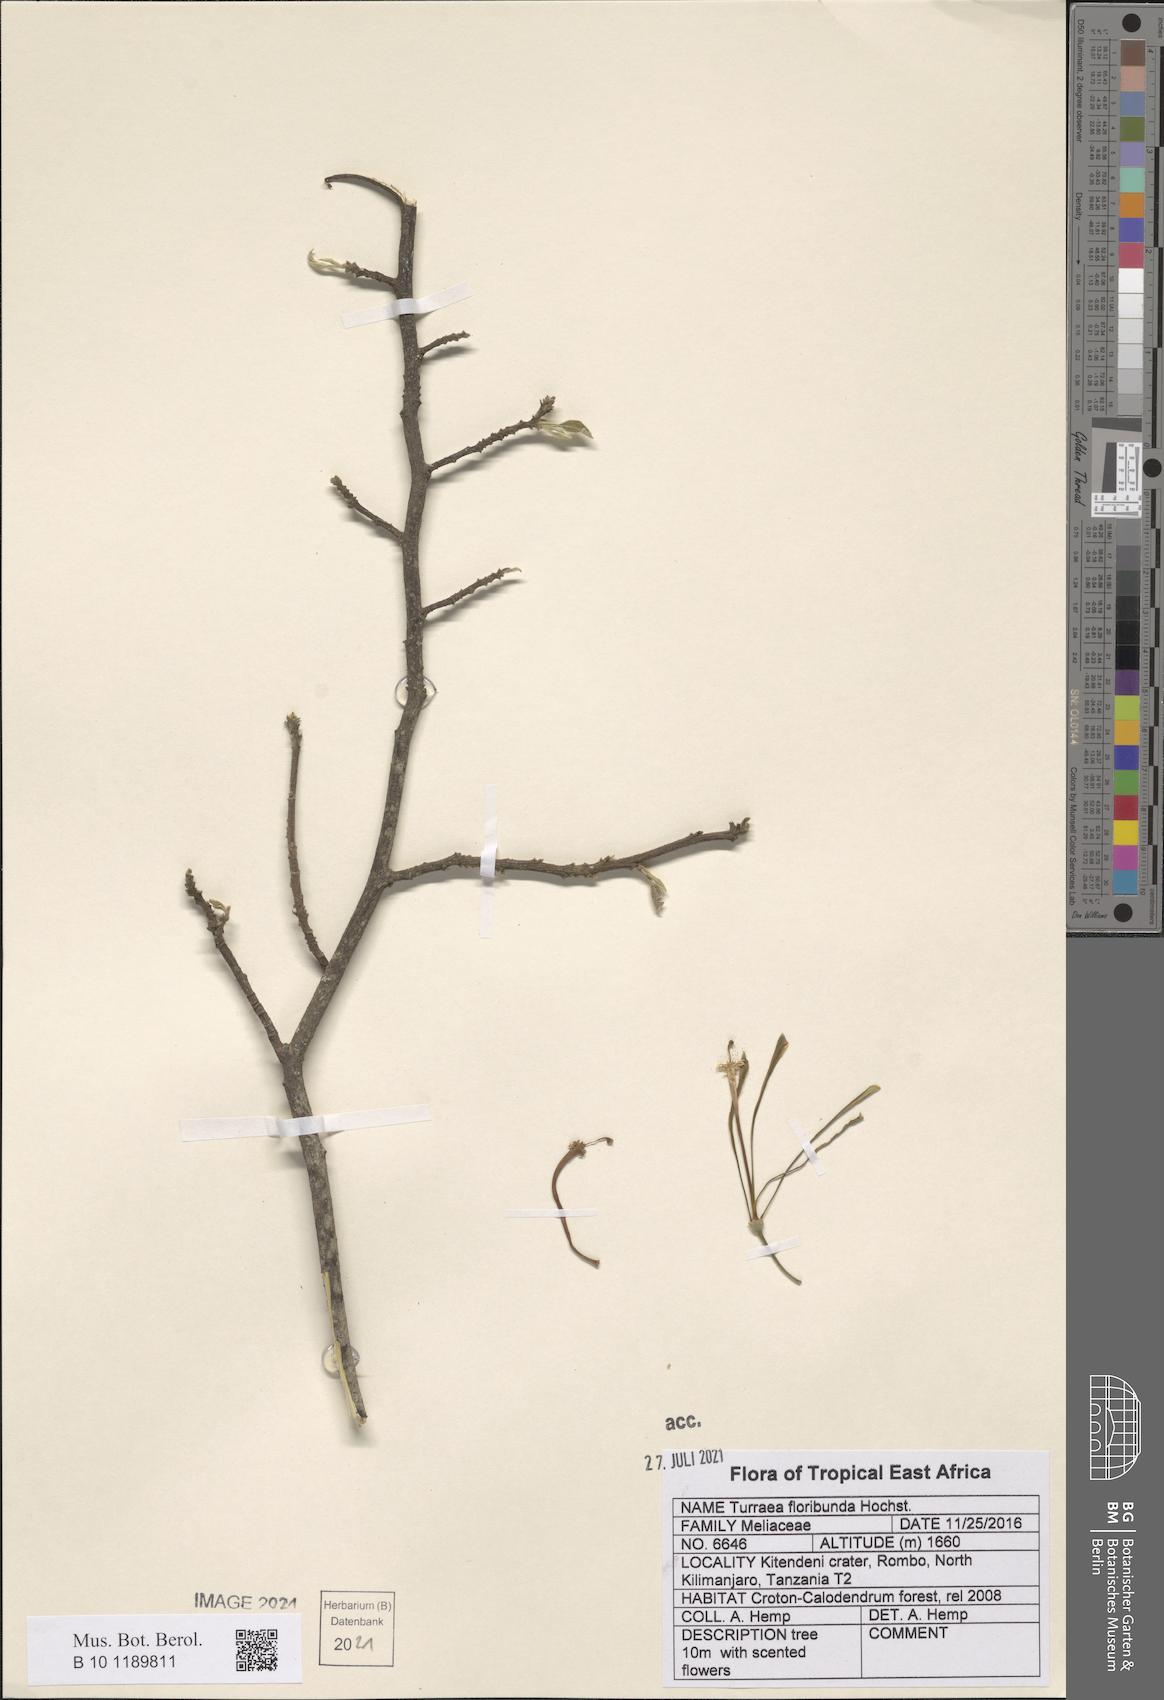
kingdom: Plantae
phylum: Tracheophyta
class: Magnoliopsida
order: Sapindales
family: Meliaceae
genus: Turraea
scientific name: Turraea floribunda
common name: Honeysuckle tree
